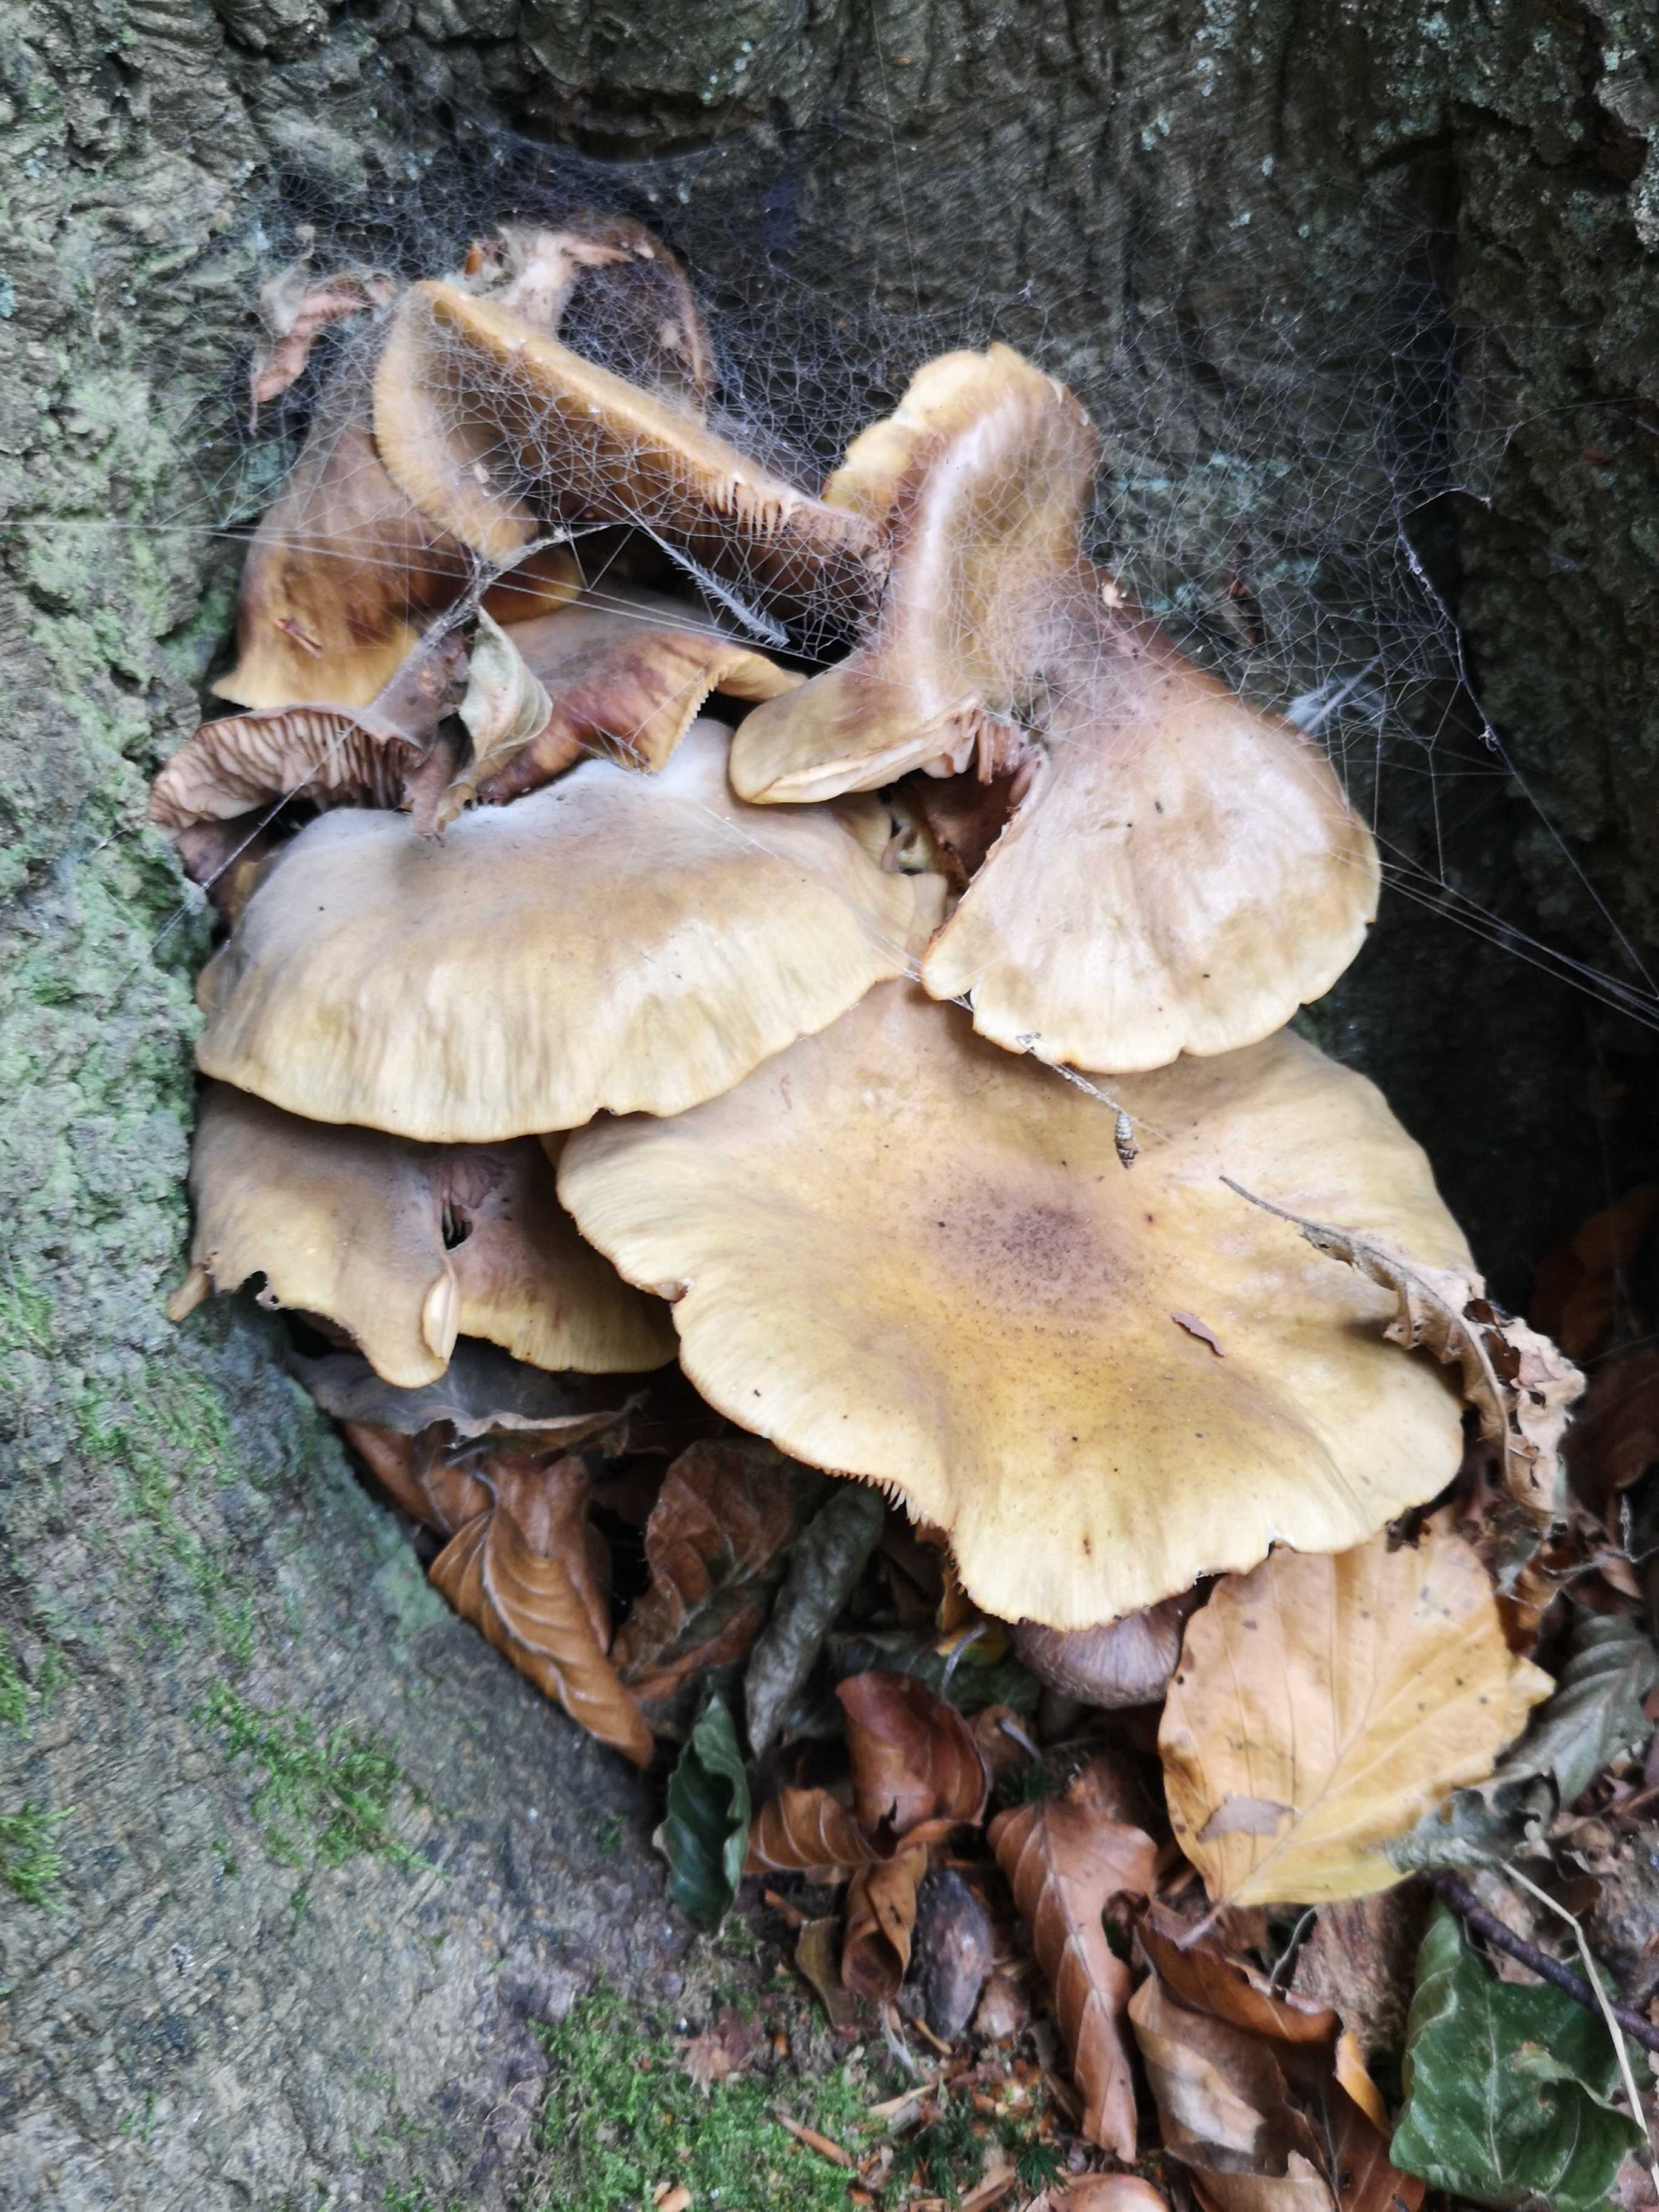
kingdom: Fungi
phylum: Basidiomycota
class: Agaricomycetes
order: Agaricales
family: Physalacriaceae
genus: Armillaria
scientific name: Armillaria mellea
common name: ægte honningsvamp
